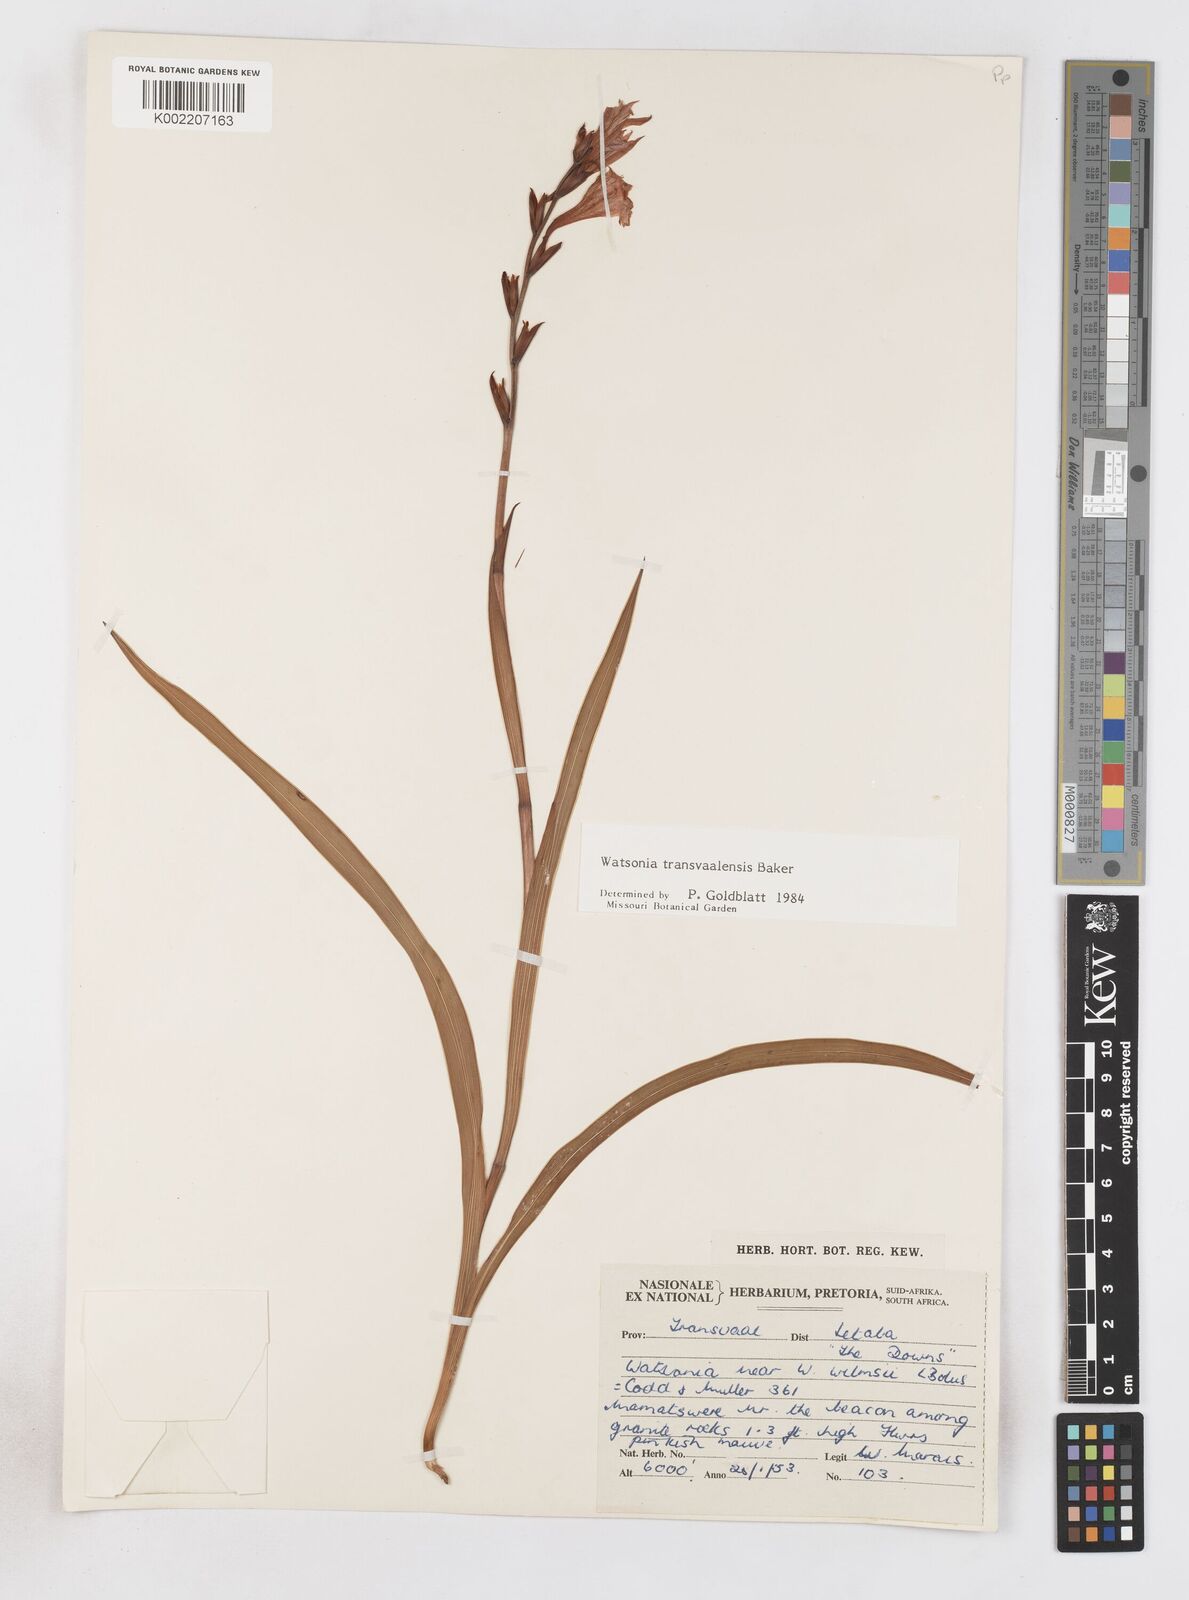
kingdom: Plantae
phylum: Tracheophyta
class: Liliopsida
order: Asparagales
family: Iridaceae
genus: Watsonia
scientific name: Watsonia transvaalensis
